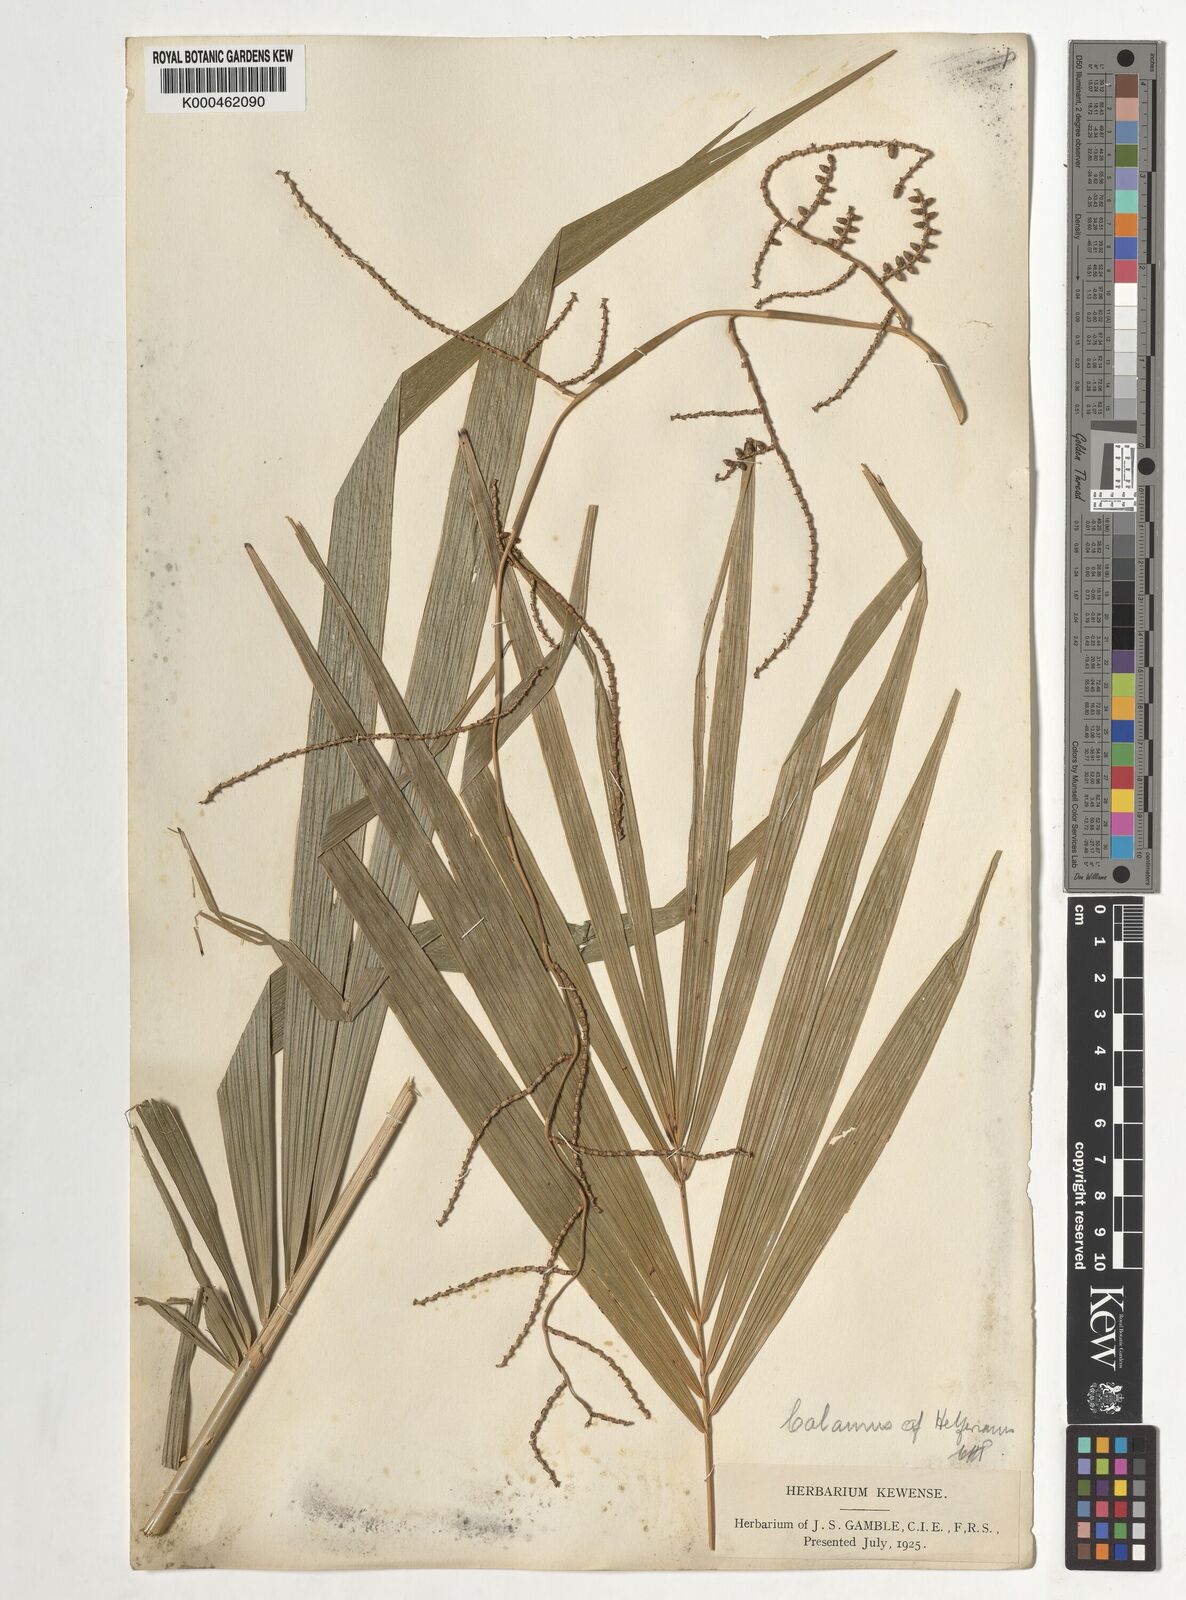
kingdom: Plantae
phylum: Tracheophyta
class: Liliopsida
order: Arecales
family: Arecaceae
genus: Calamus
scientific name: Calamus helferianus
